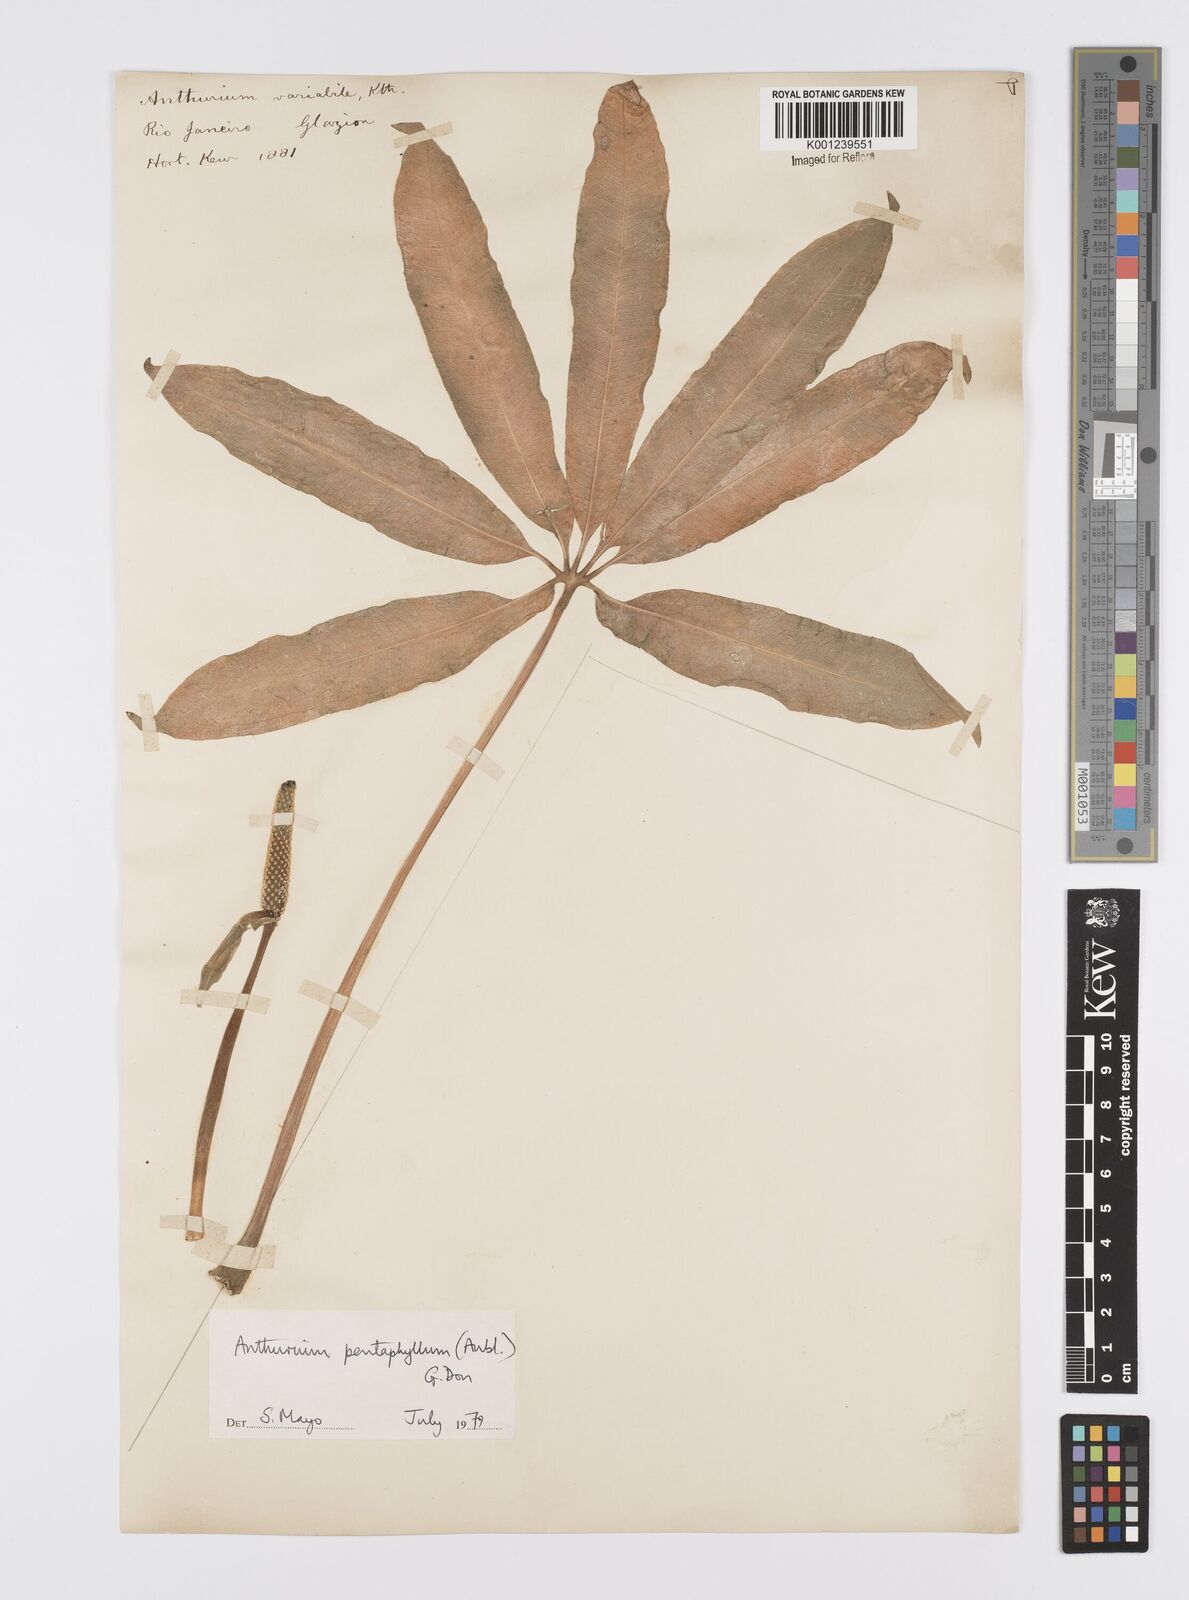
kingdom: Plantae
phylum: Tracheophyta
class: Liliopsida
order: Alismatales
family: Araceae
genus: Anthurium
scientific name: Anthurium pentaphyllum
